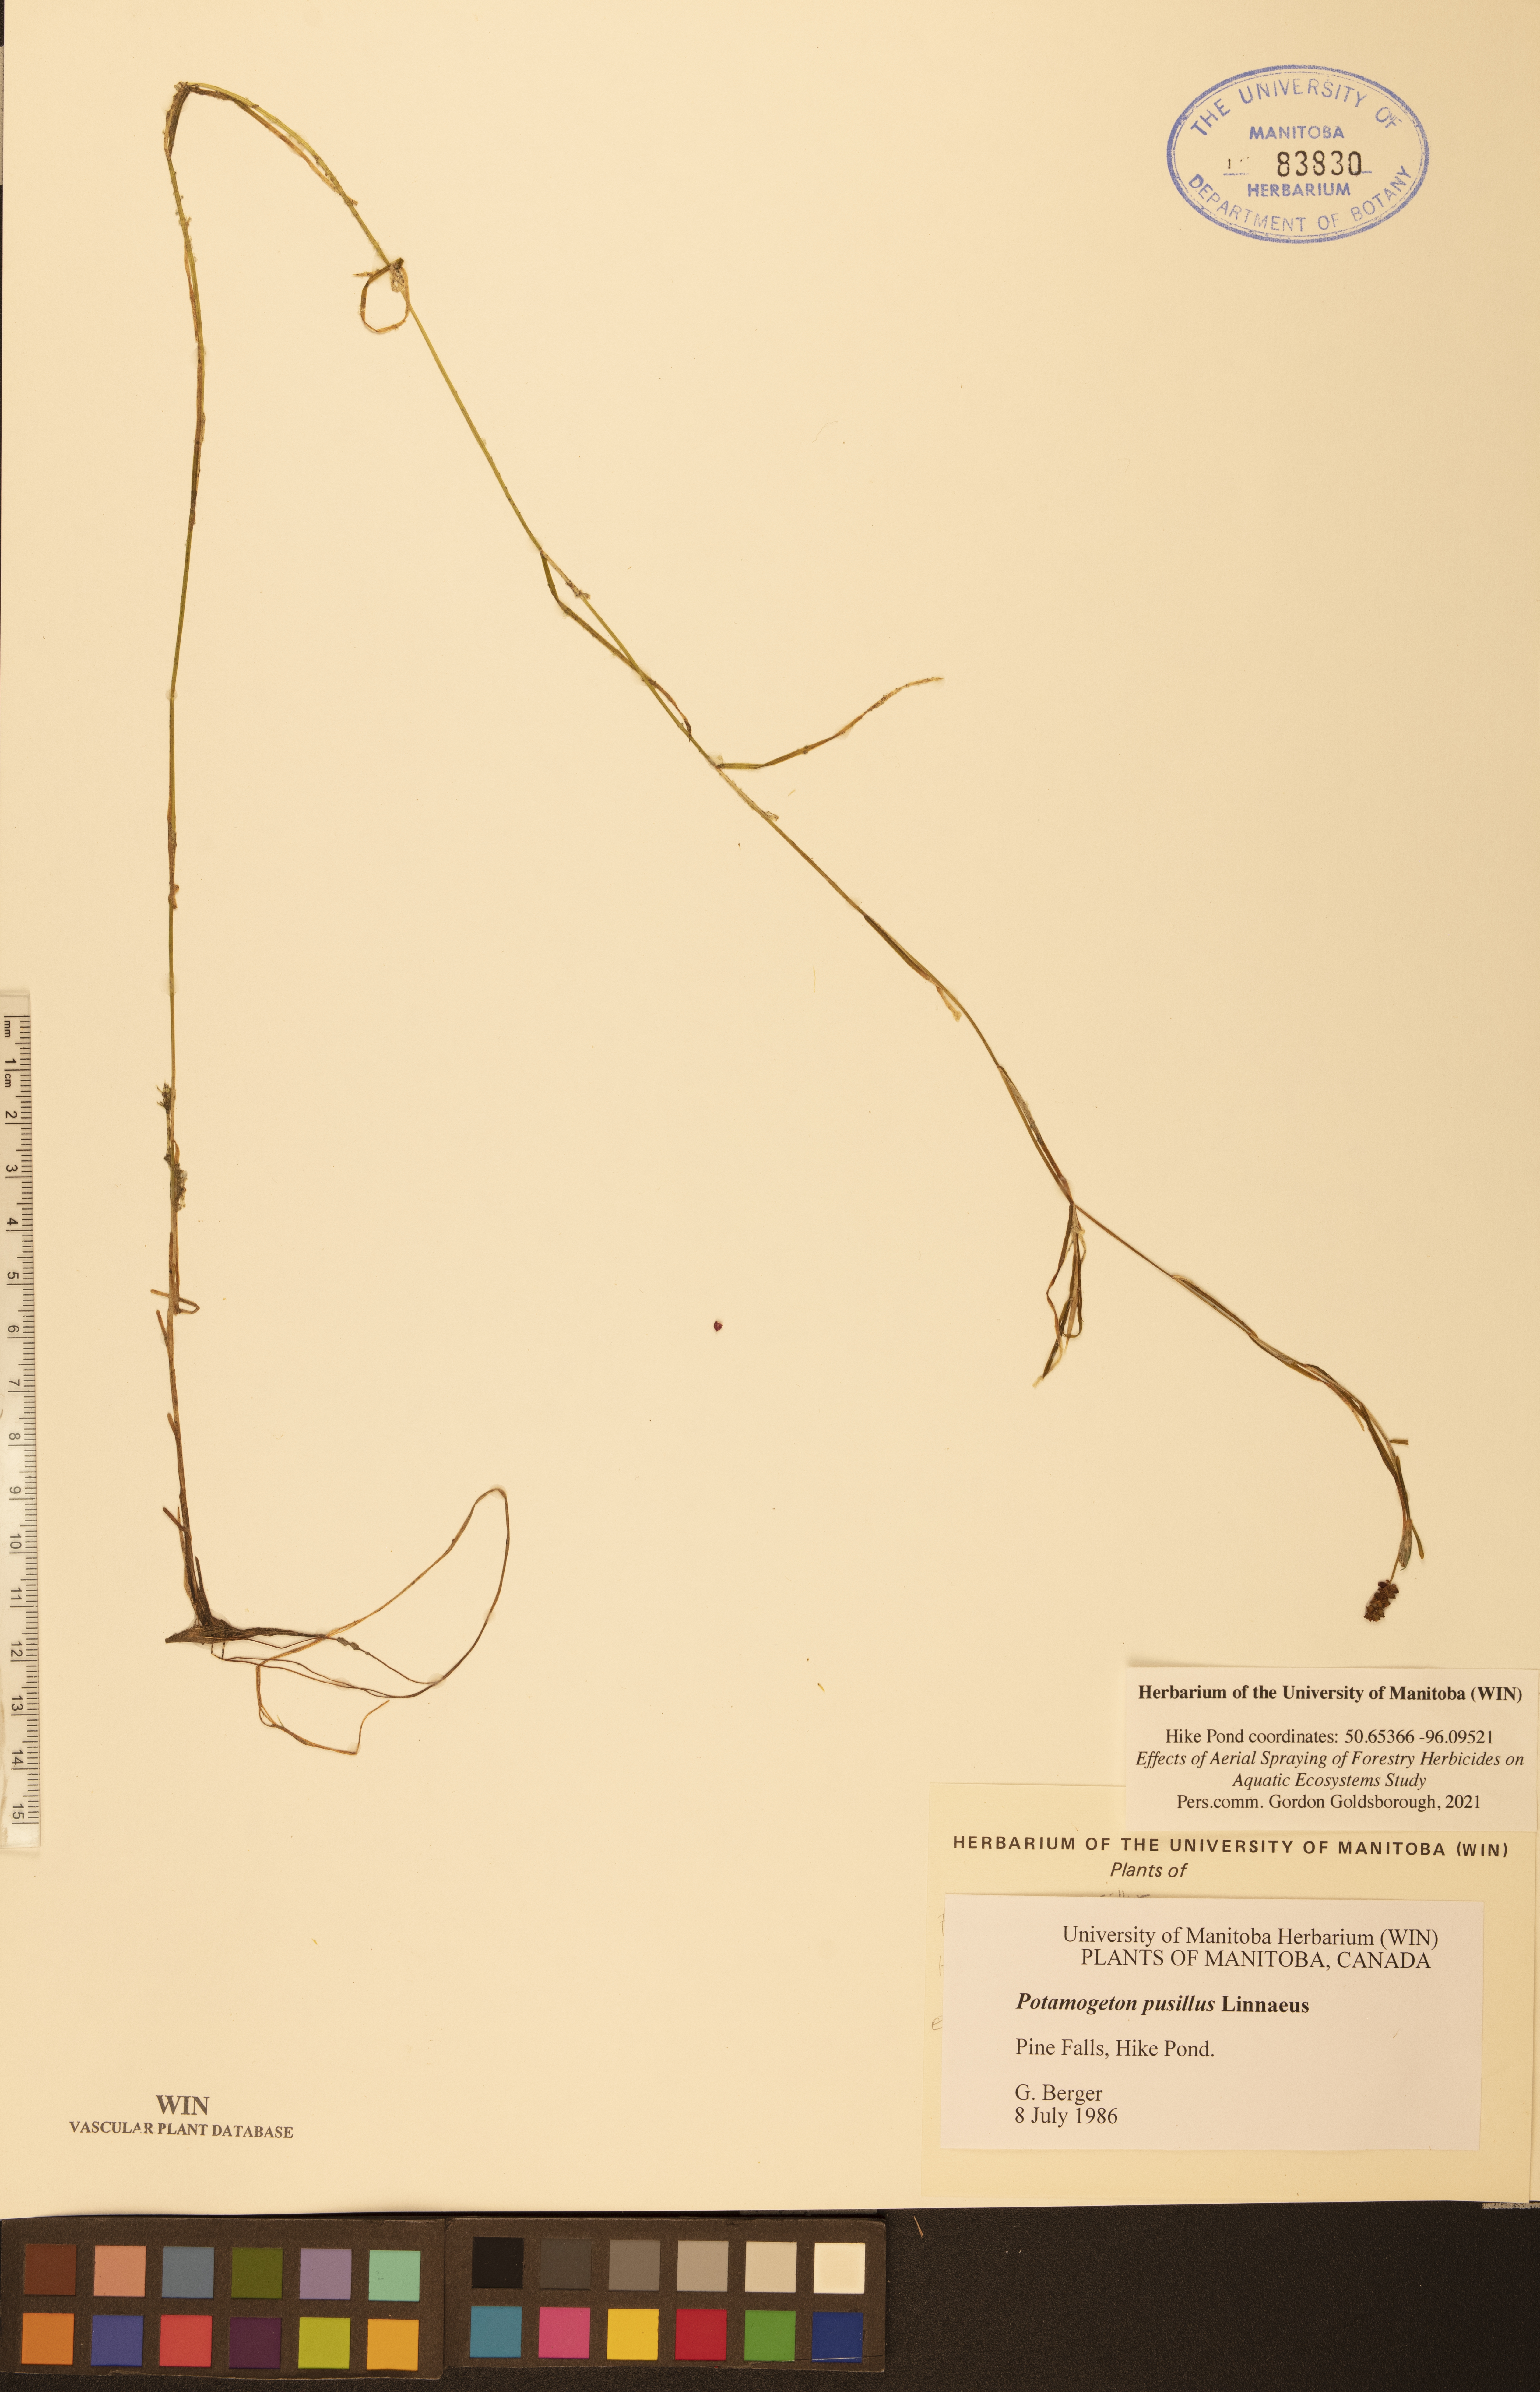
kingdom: Plantae
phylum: Tracheophyta
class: Liliopsida
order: Alismatales
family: Potamogetonaceae
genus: Potamogeton
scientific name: Potamogeton pusillus
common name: Lesser pondweed
